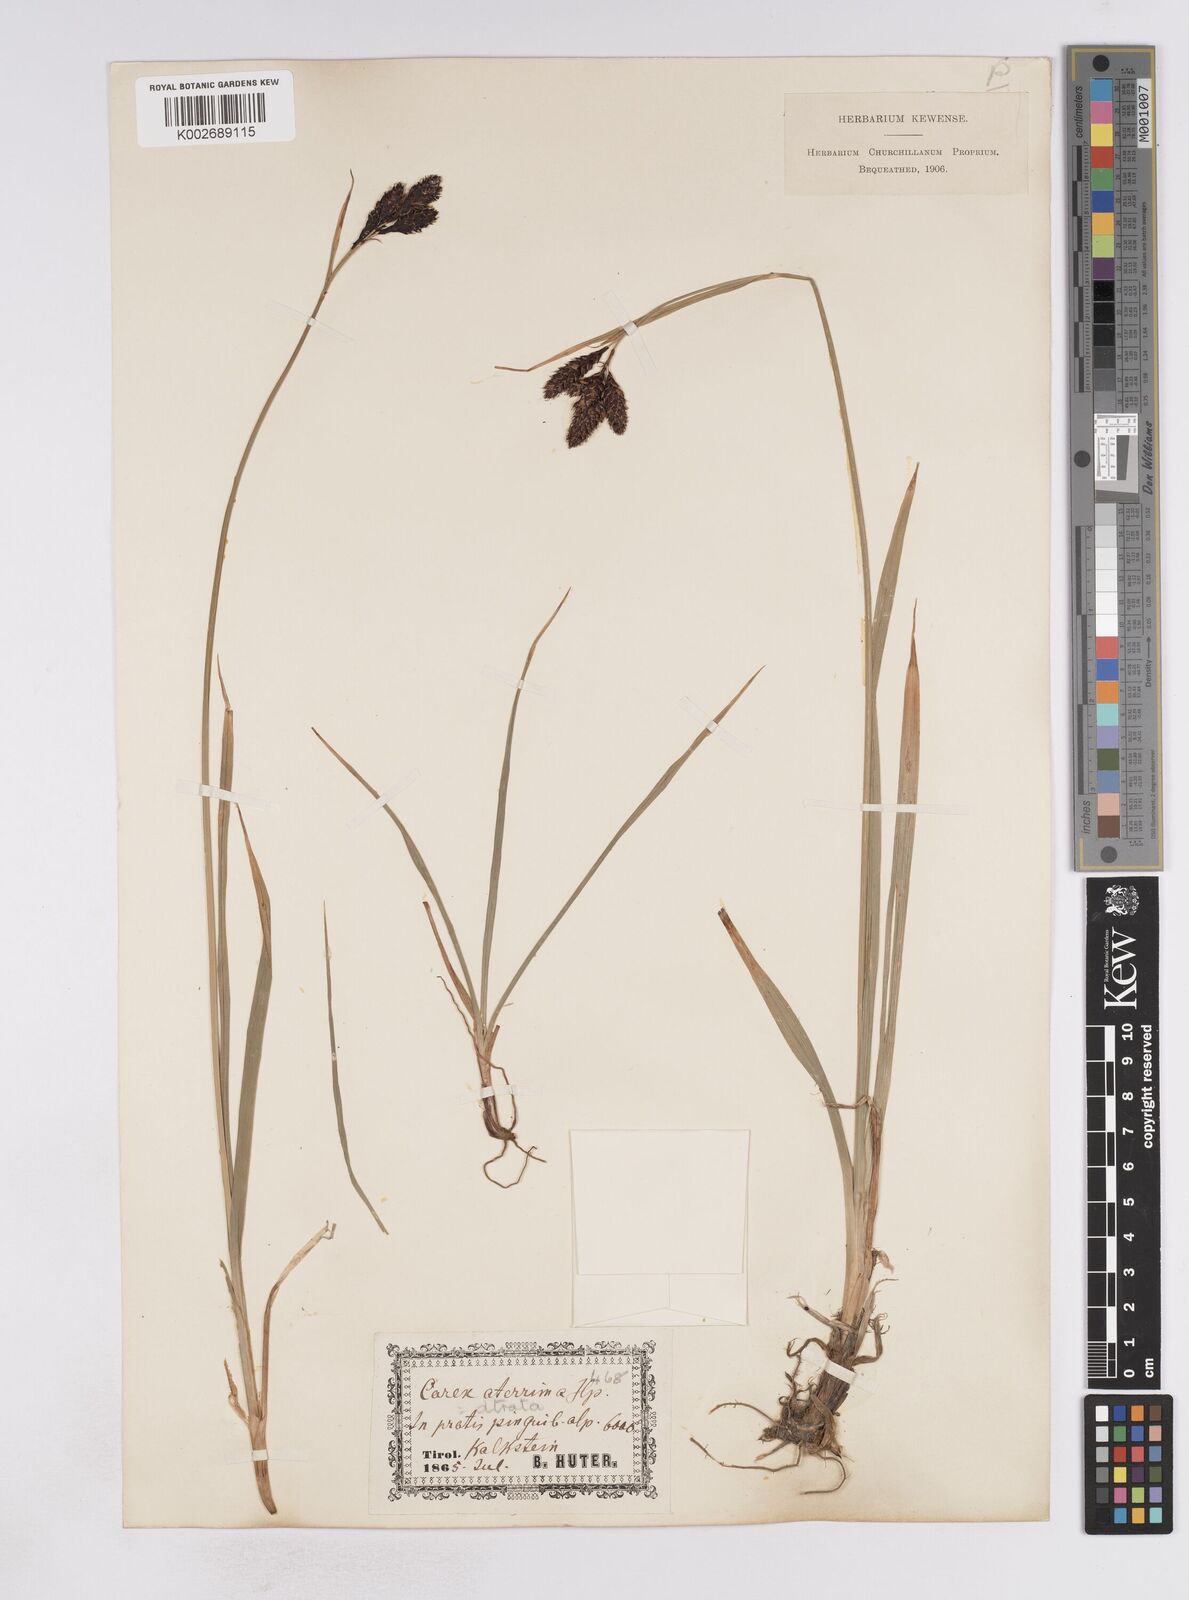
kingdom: Plantae
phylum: Tracheophyta
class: Liliopsida
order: Poales
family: Cyperaceae
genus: Carex
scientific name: Carex aterrima
